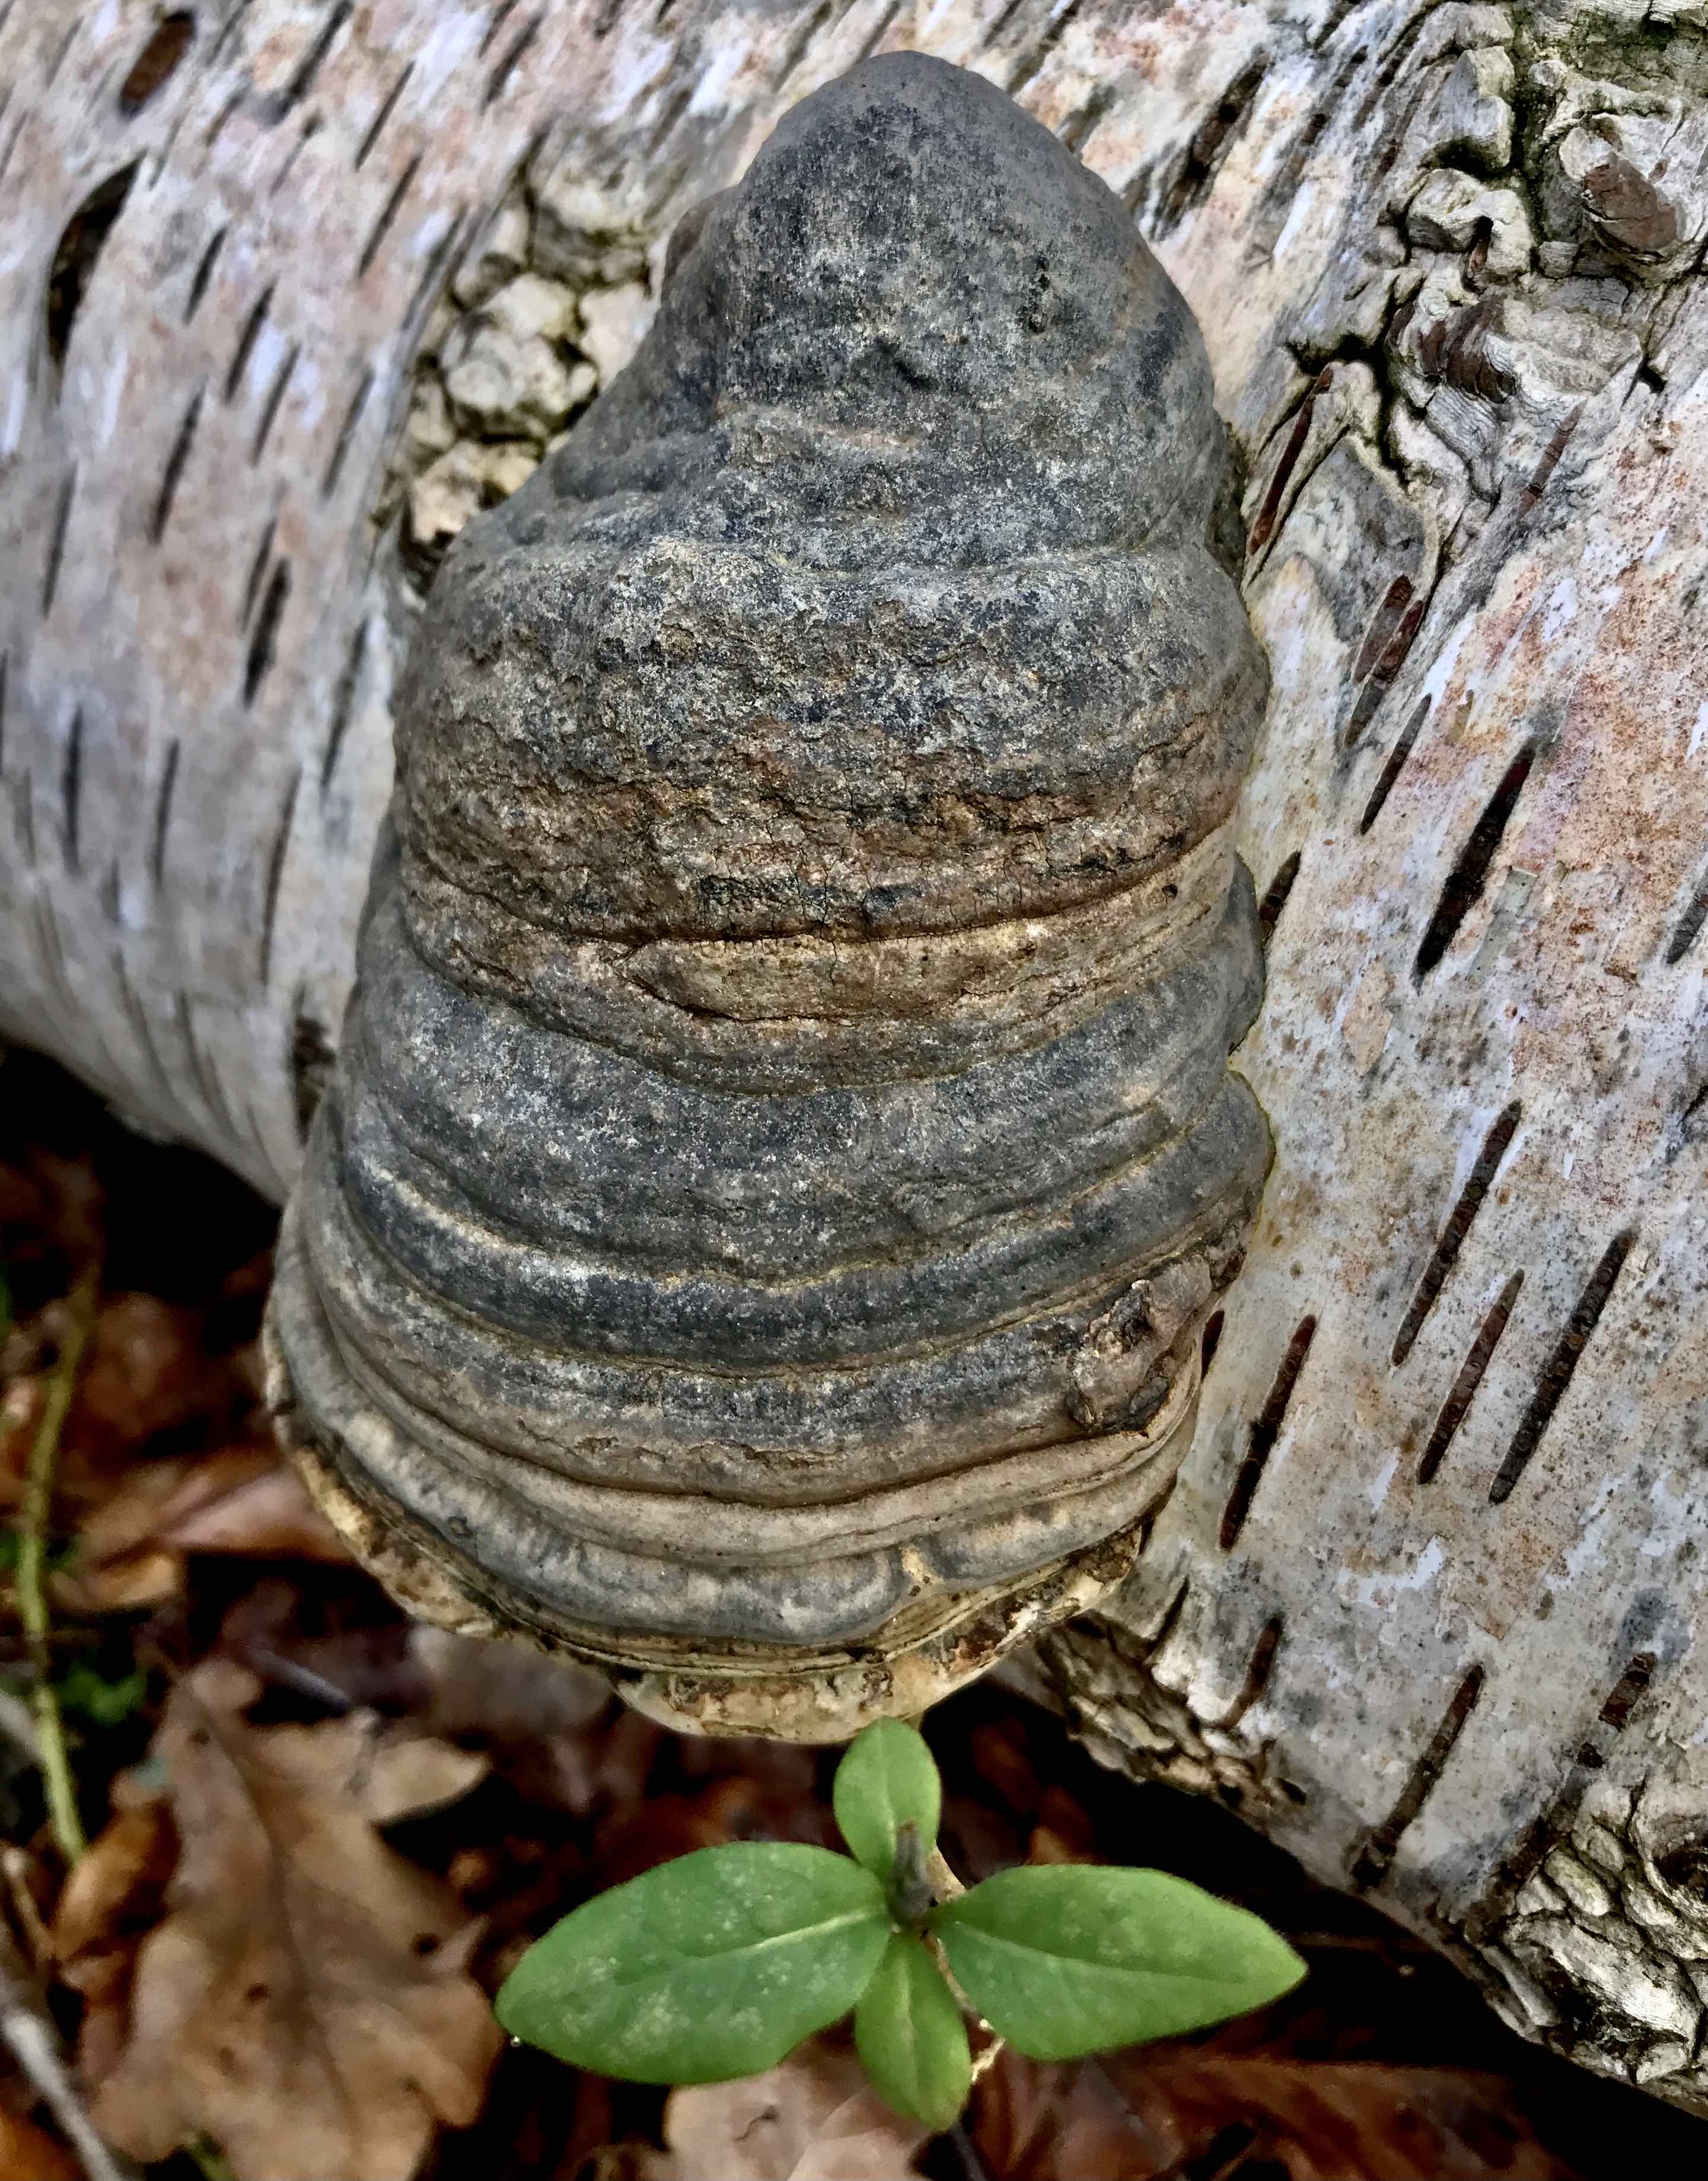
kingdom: Fungi
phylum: Basidiomycota
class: Agaricomycetes
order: Polyporales
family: Polyporaceae
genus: Fomes
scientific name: Fomes fomentarius
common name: tøndersvamp
